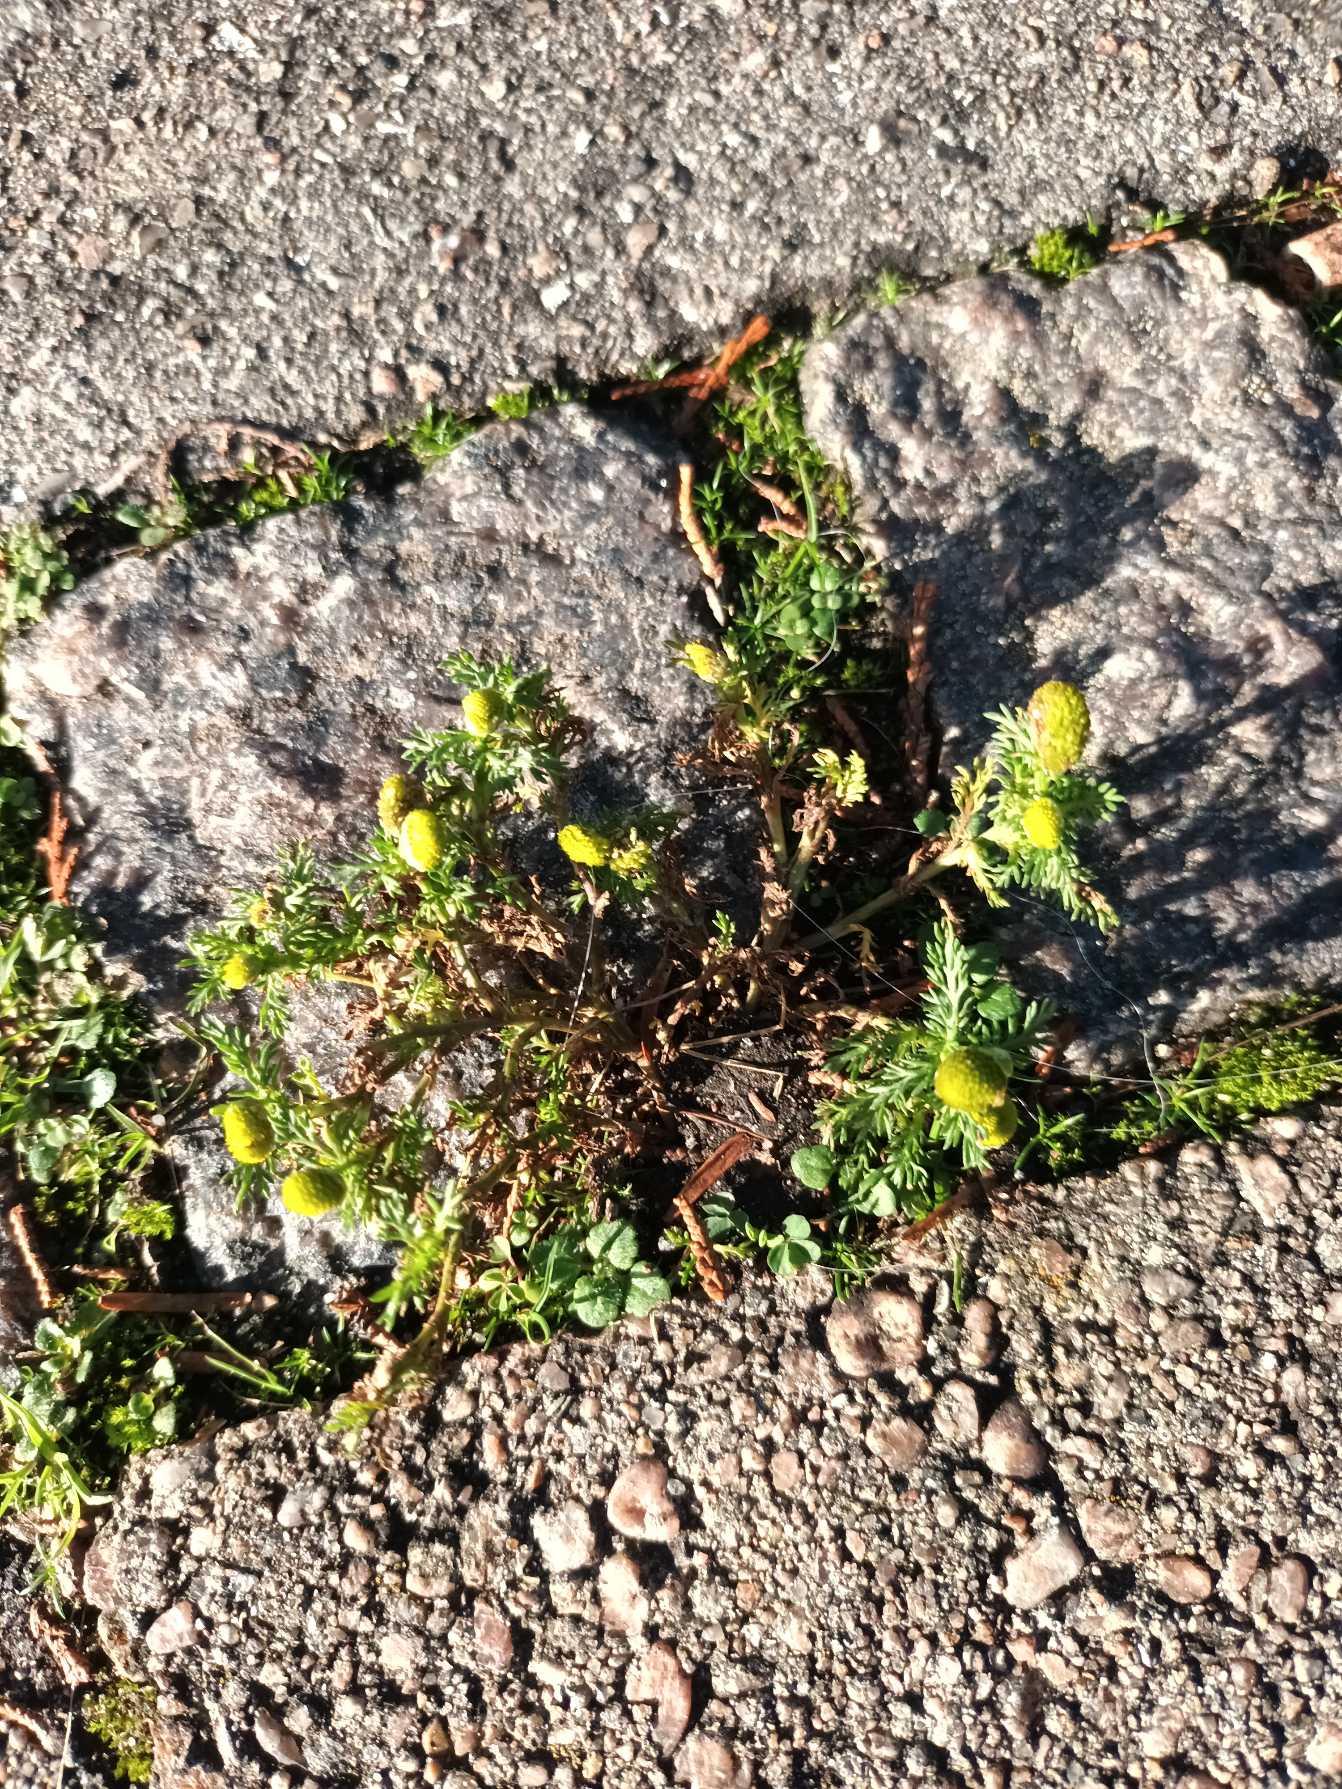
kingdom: Plantae
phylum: Tracheophyta
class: Magnoliopsida
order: Asterales
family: Asteraceae
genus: Matricaria
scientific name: Matricaria discoidea
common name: Skive-kamille
